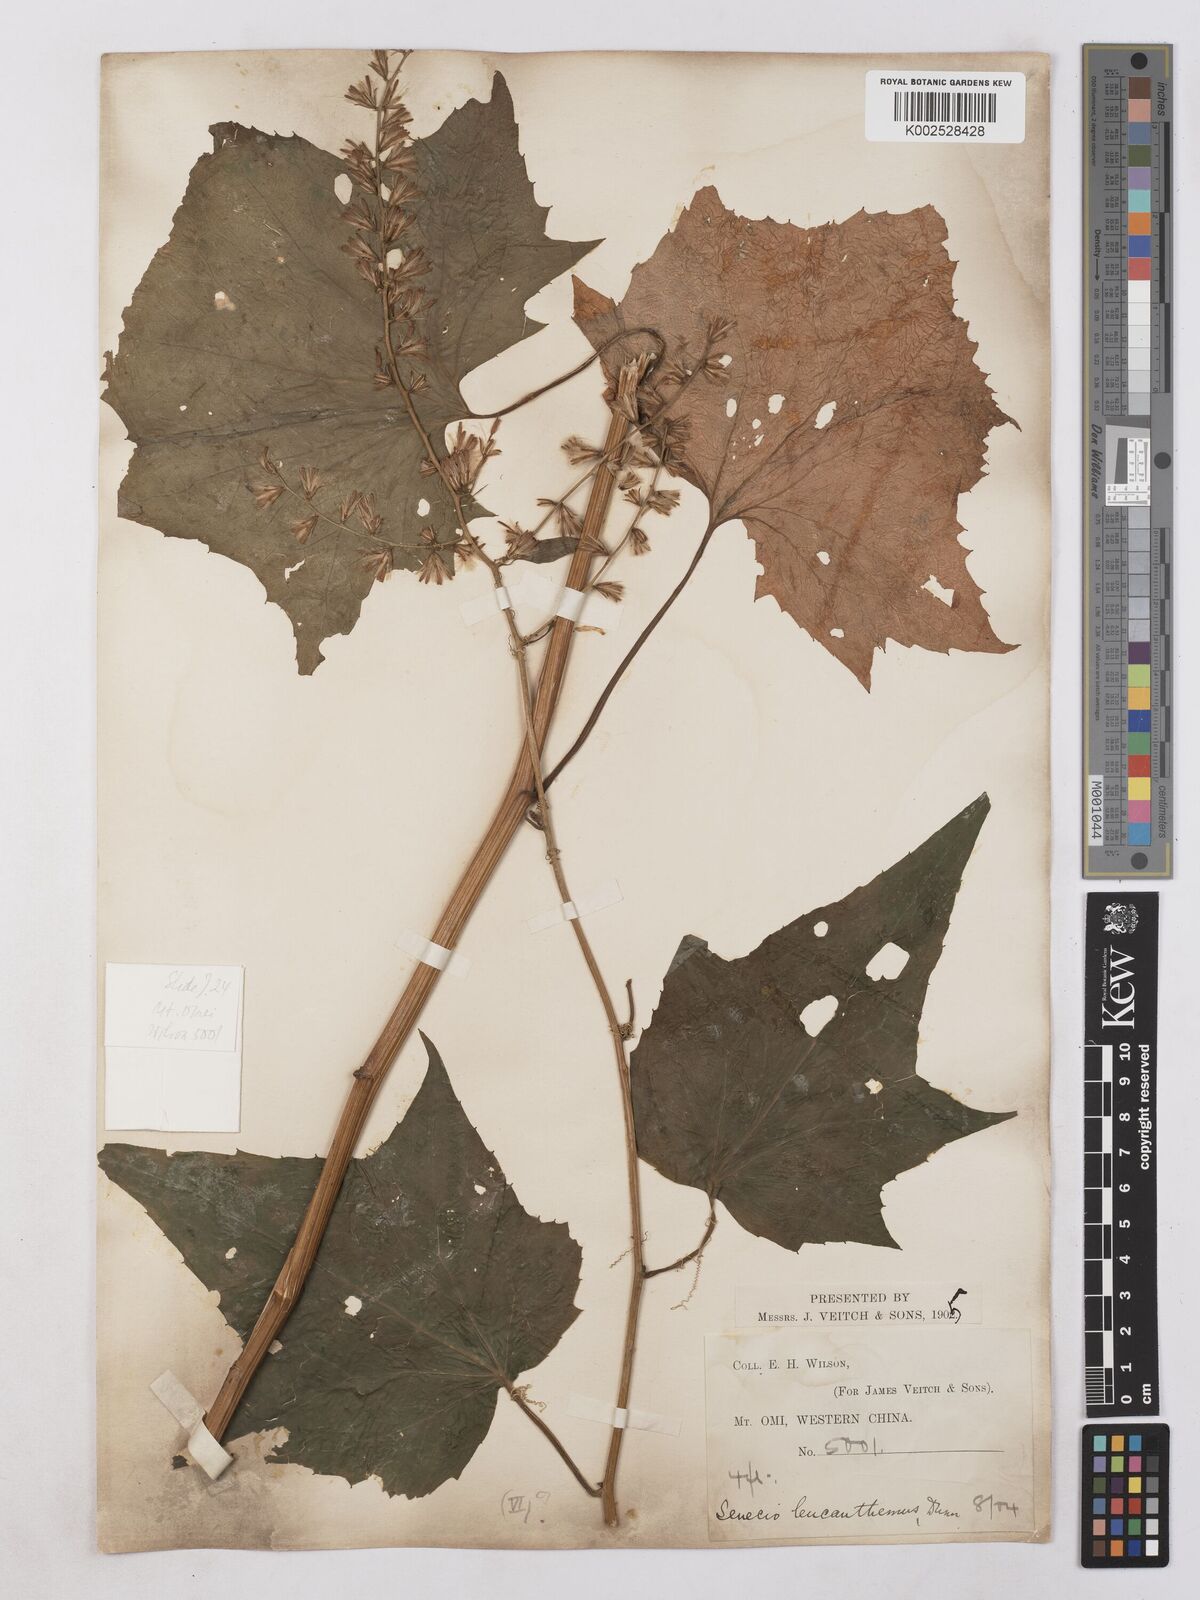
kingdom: Plantae
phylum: Tracheophyta
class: Magnoliopsida
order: Asterales
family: Asteraceae
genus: Parasenecio
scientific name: Parasenecio ainsliaeiflorus
